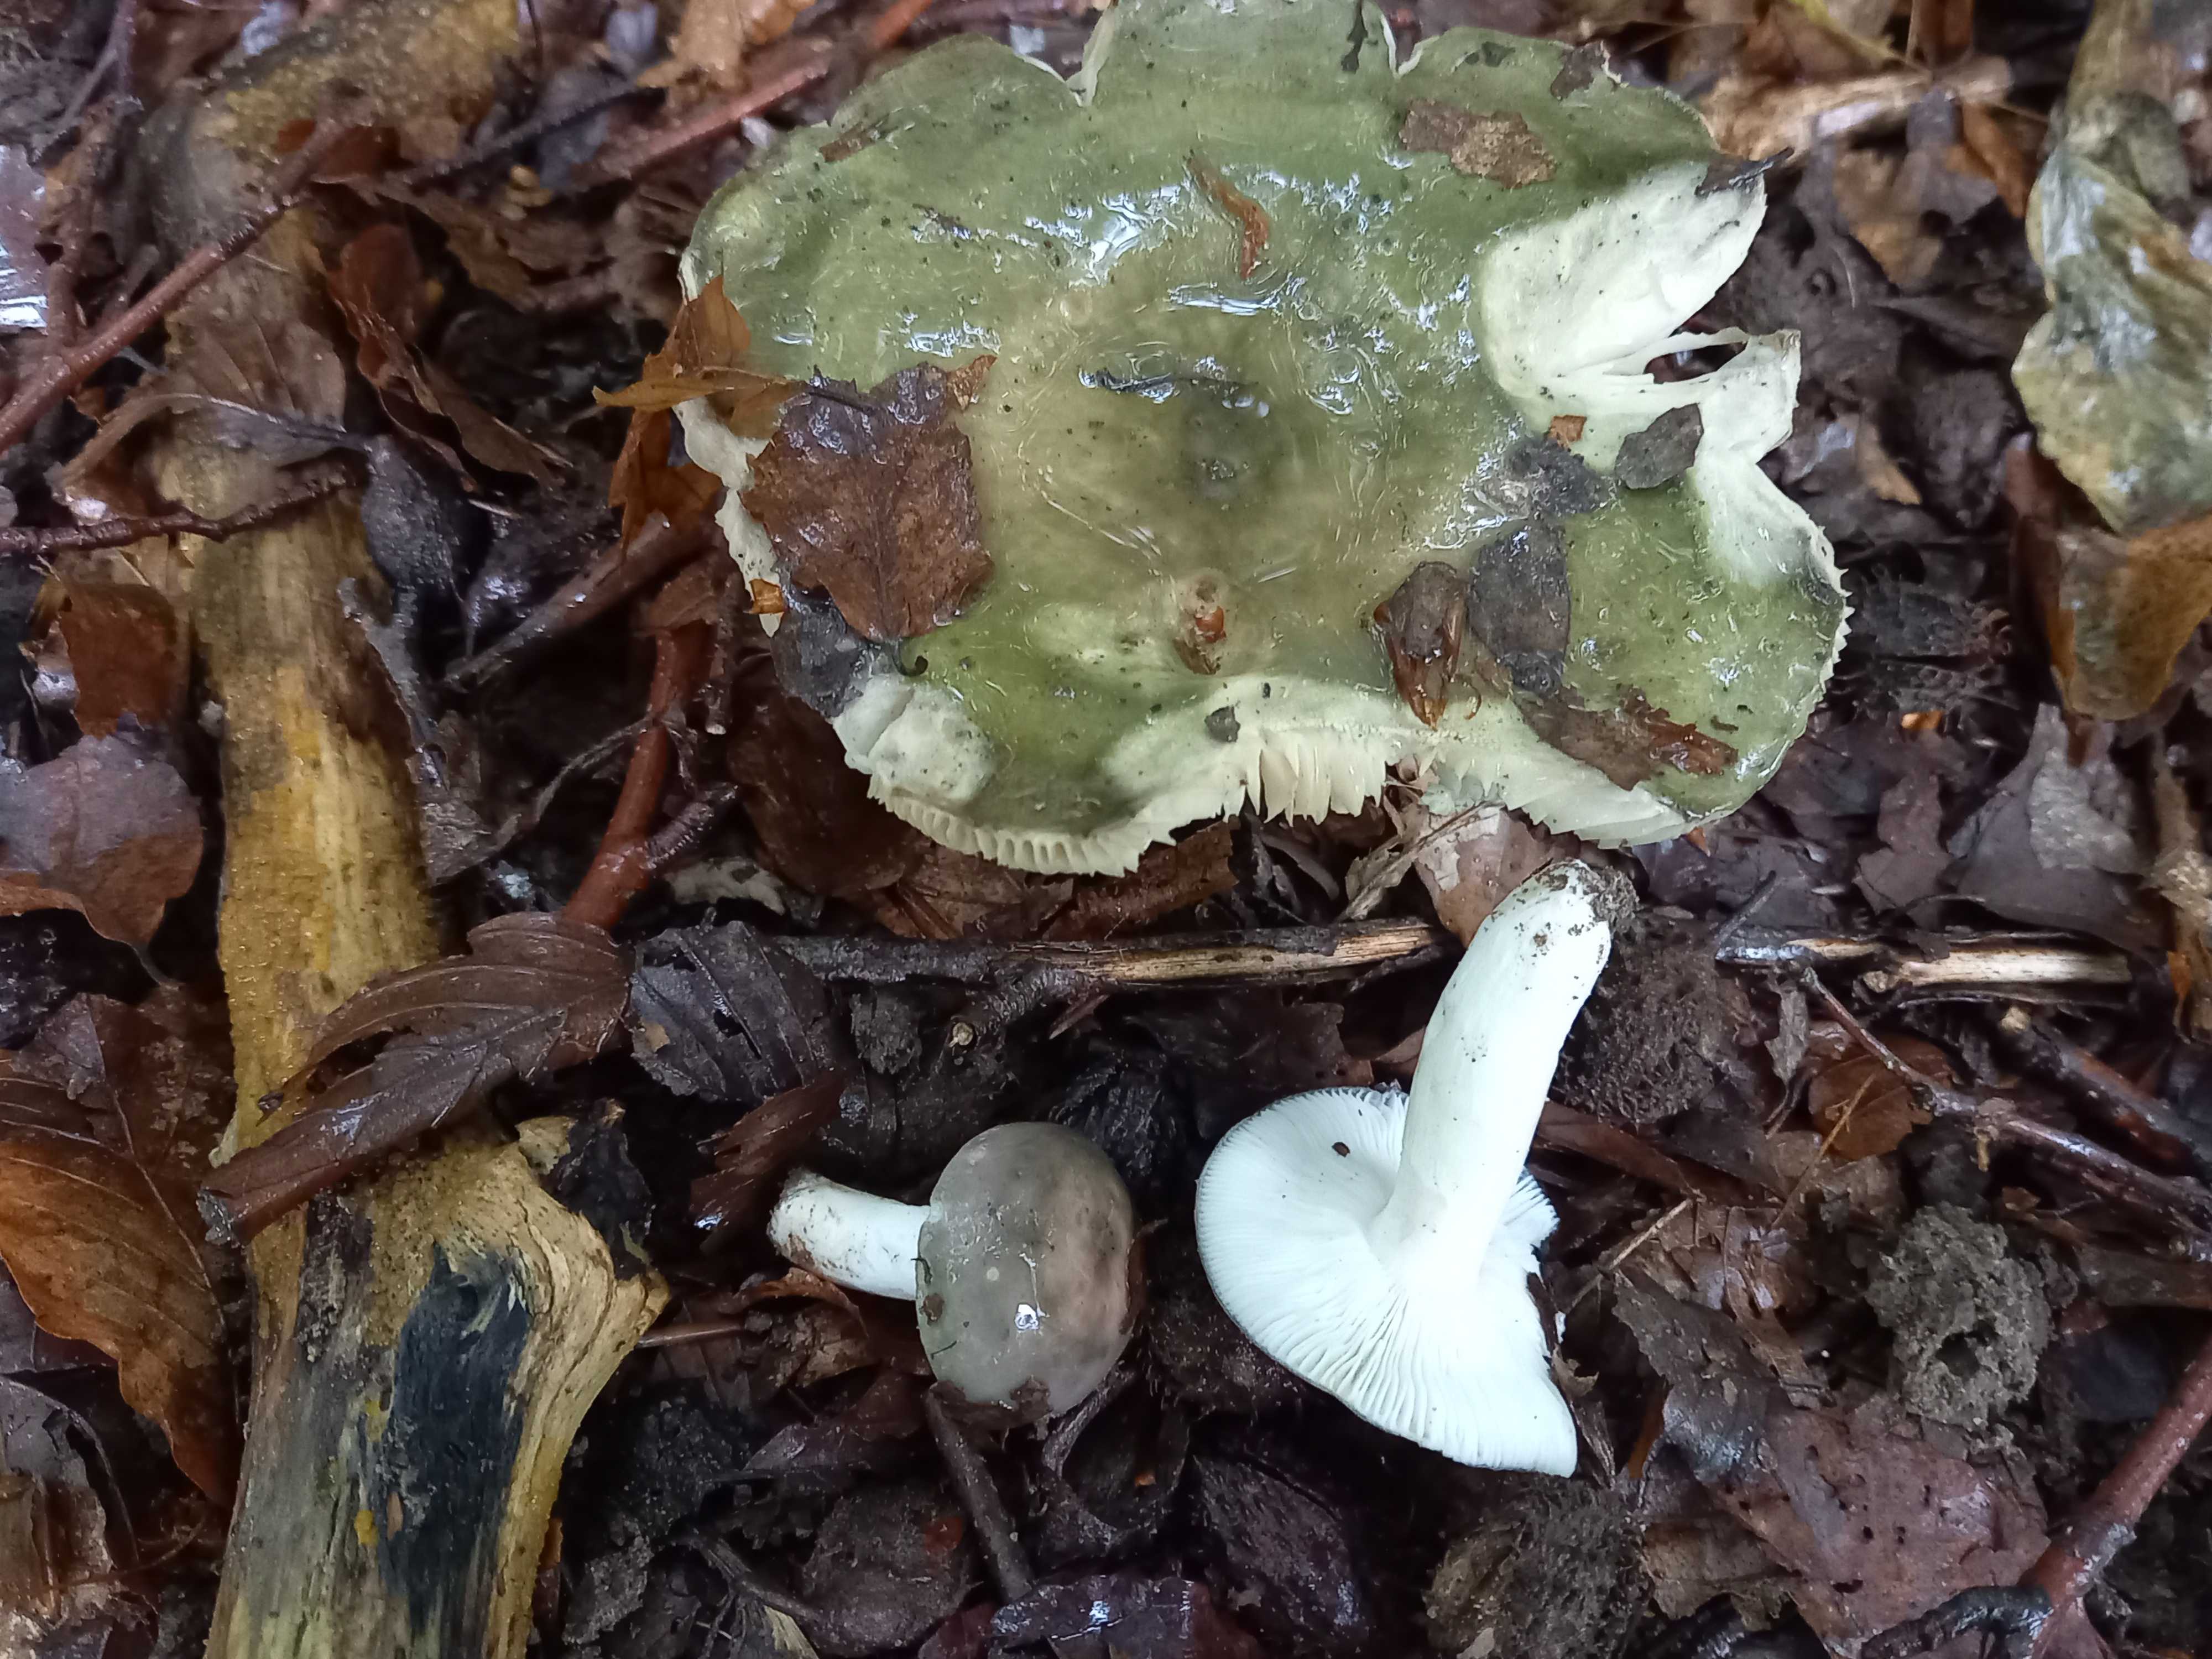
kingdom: Fungi
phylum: Basidiomycota
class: Agaricomycetes
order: Russulales
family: Russulaceae
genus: Russula
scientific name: Russula cyanoxantha
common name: broget skørhat
